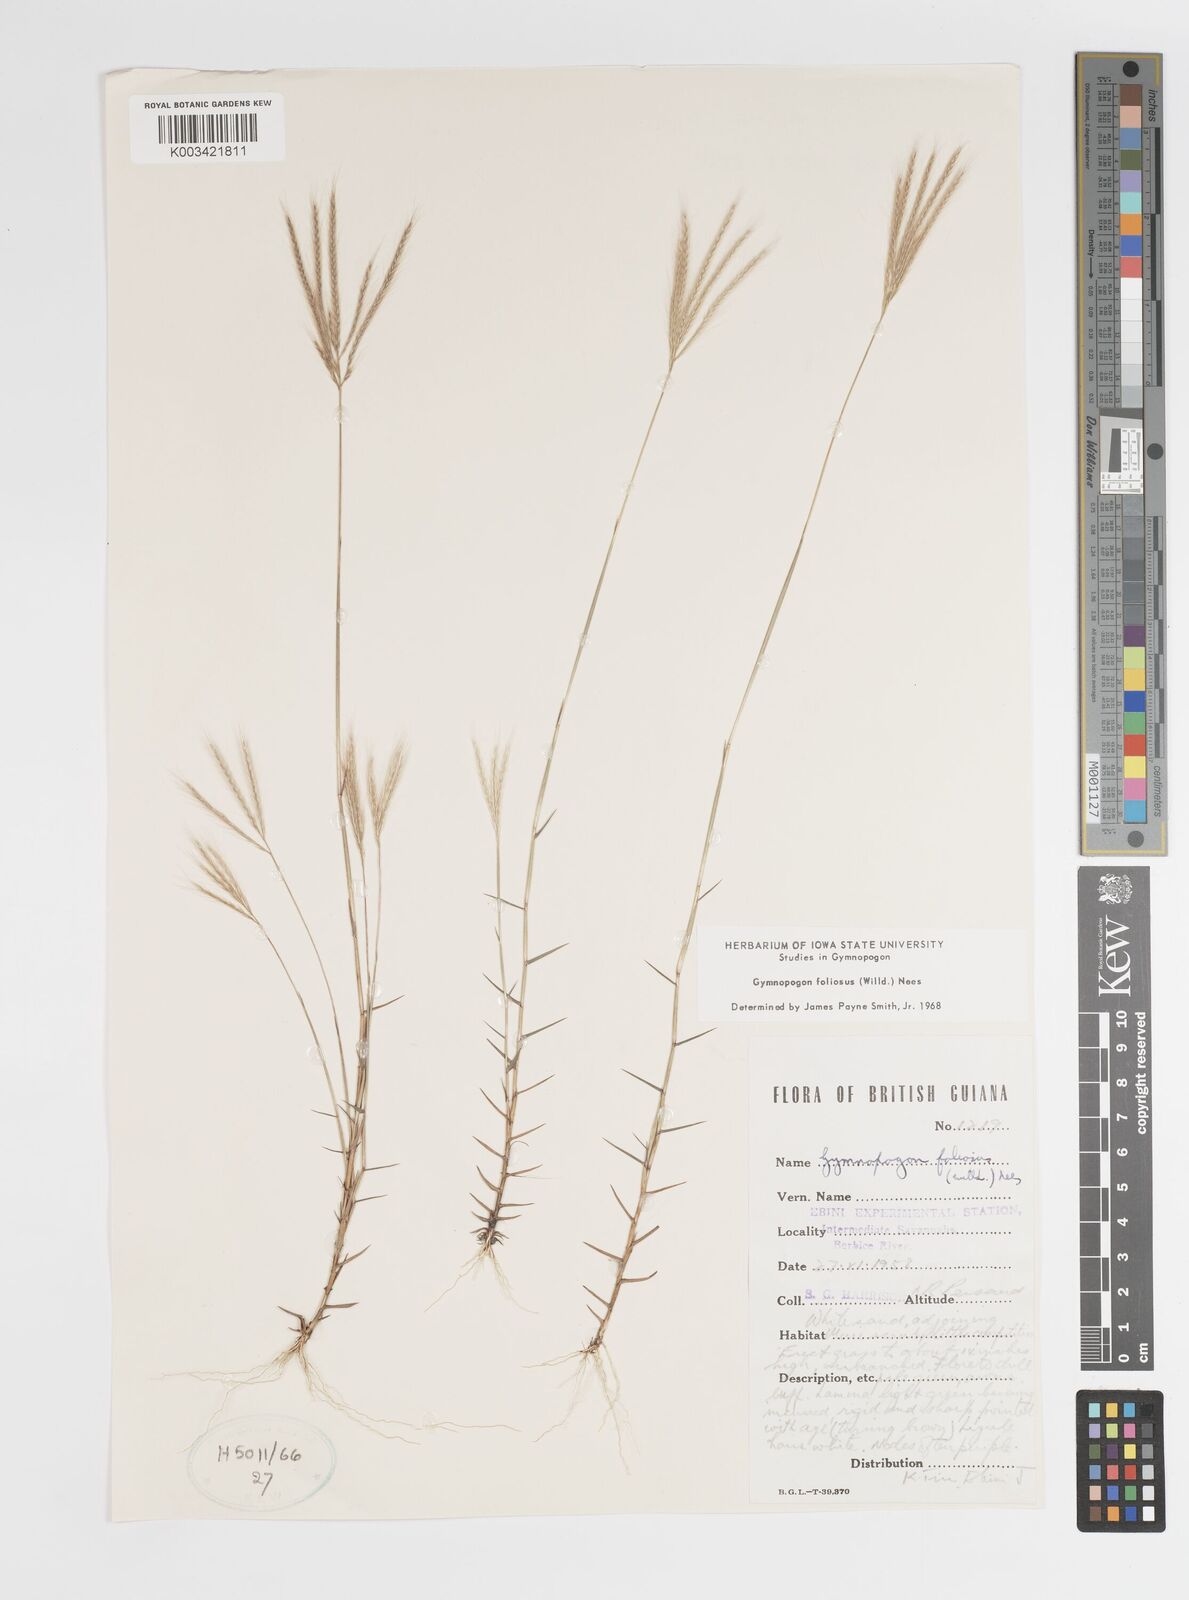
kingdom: Plantae
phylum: Tracheophyta
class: Liliopsida
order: Poales
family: Poaceae
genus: Gymnopogon
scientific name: Gymnopogon foliosus
